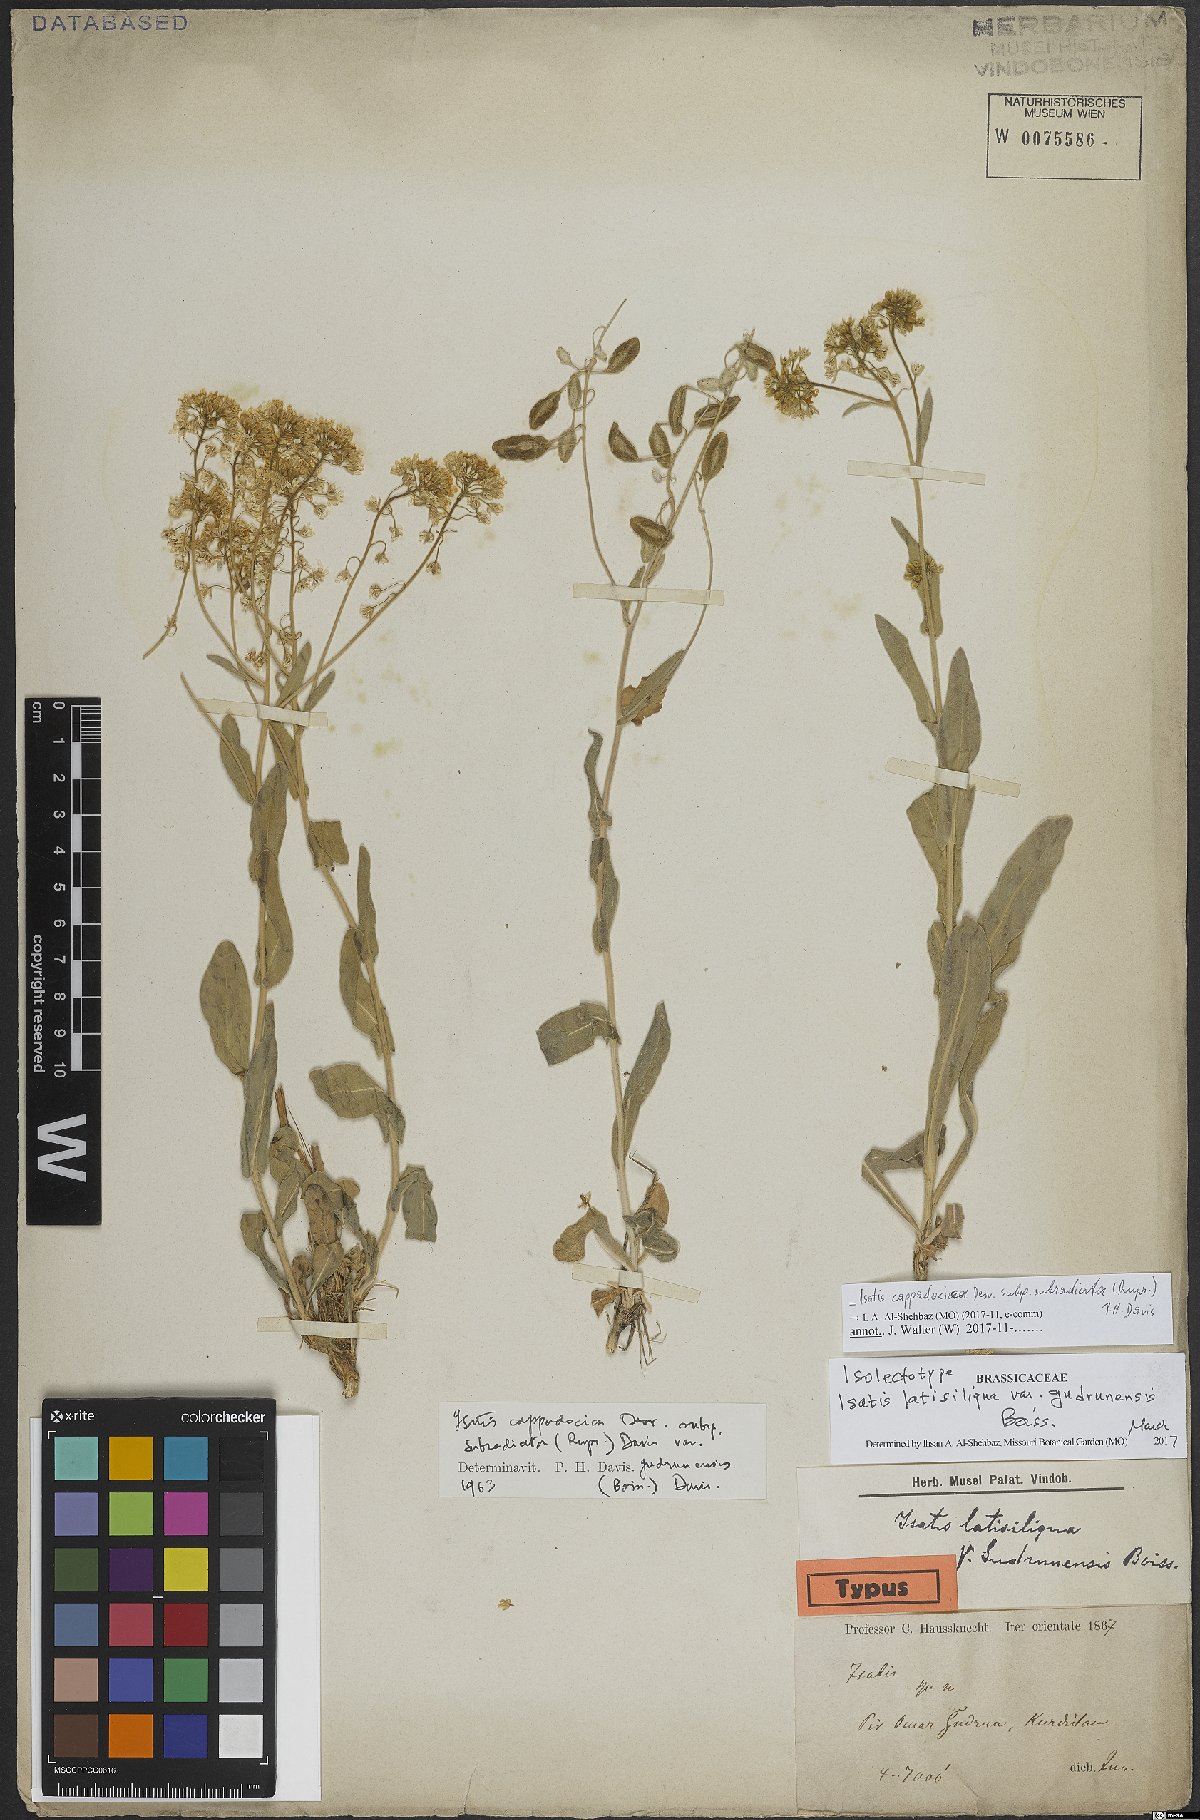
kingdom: Plantae
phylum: Tracheophyta
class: Magnoliopsida
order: Brassicales
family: Brassicaceae
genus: Isatis
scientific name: Isatis subradiata
